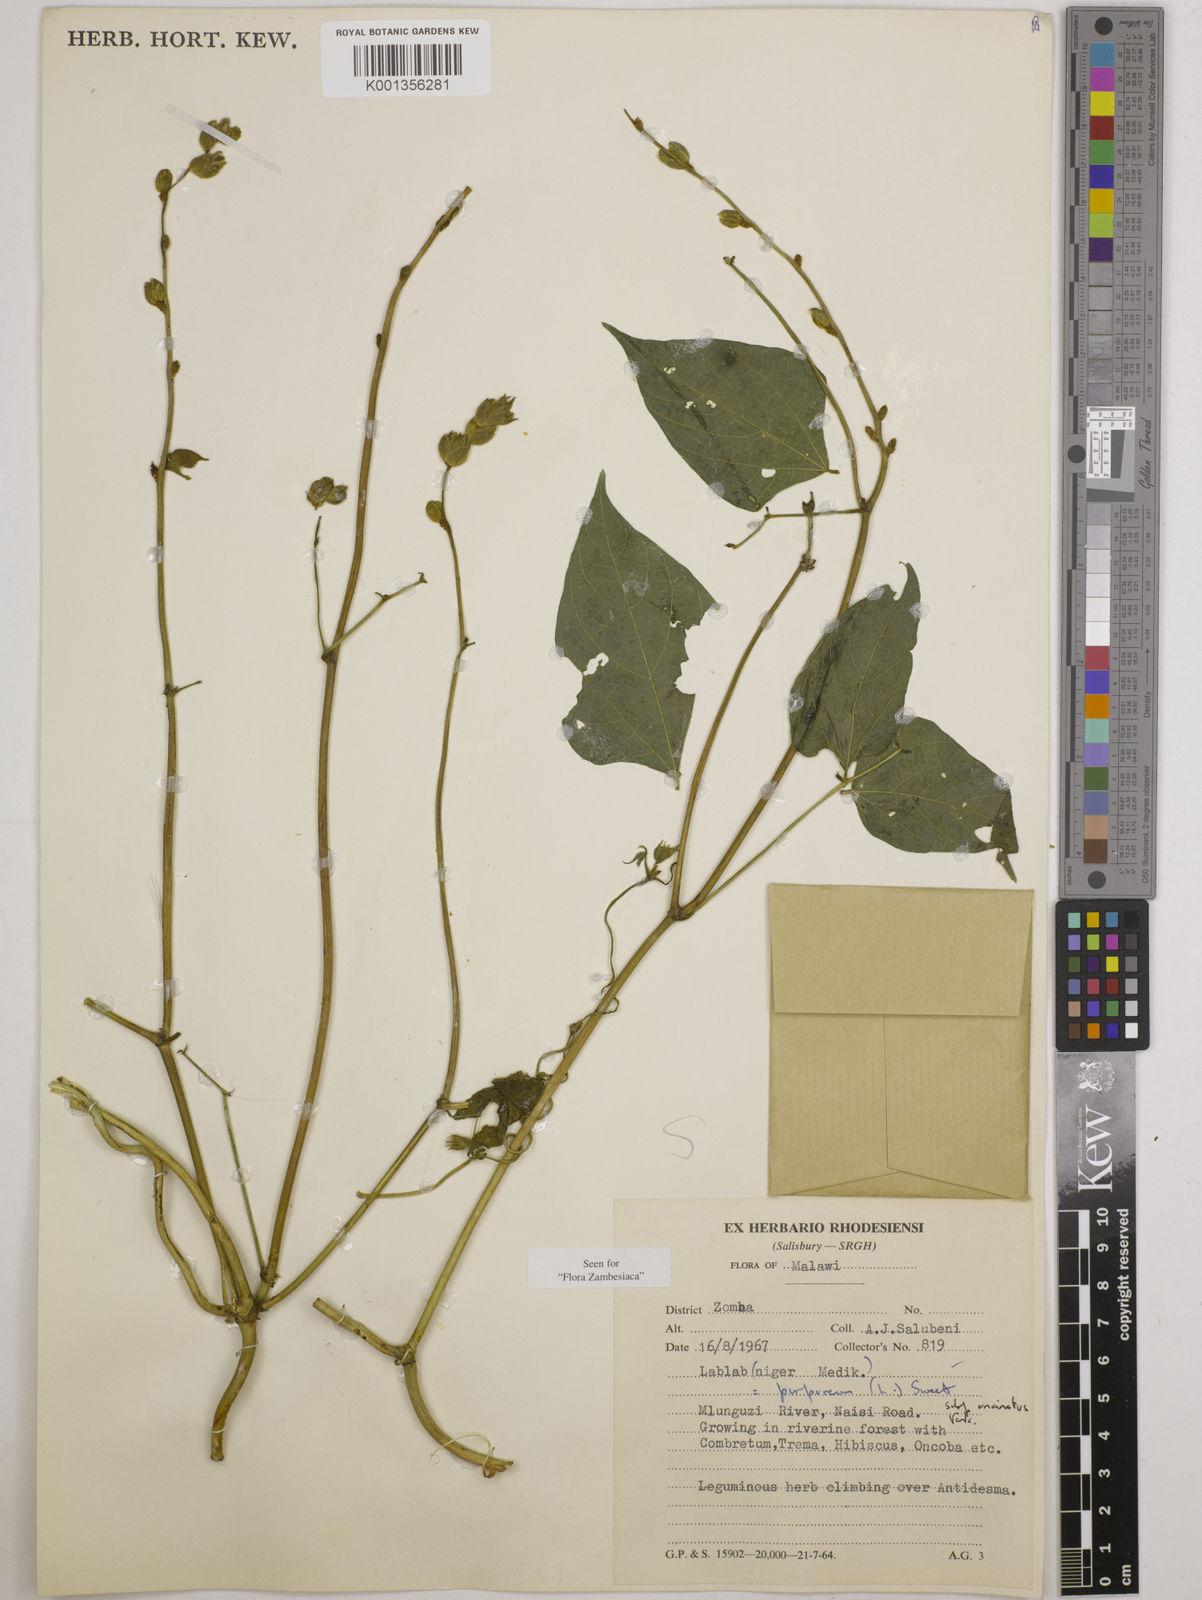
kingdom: Plantae
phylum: Tracheophyta
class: Magnoliopsida
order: Fabales
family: Fabaceae
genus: Lablab
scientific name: Lablab
